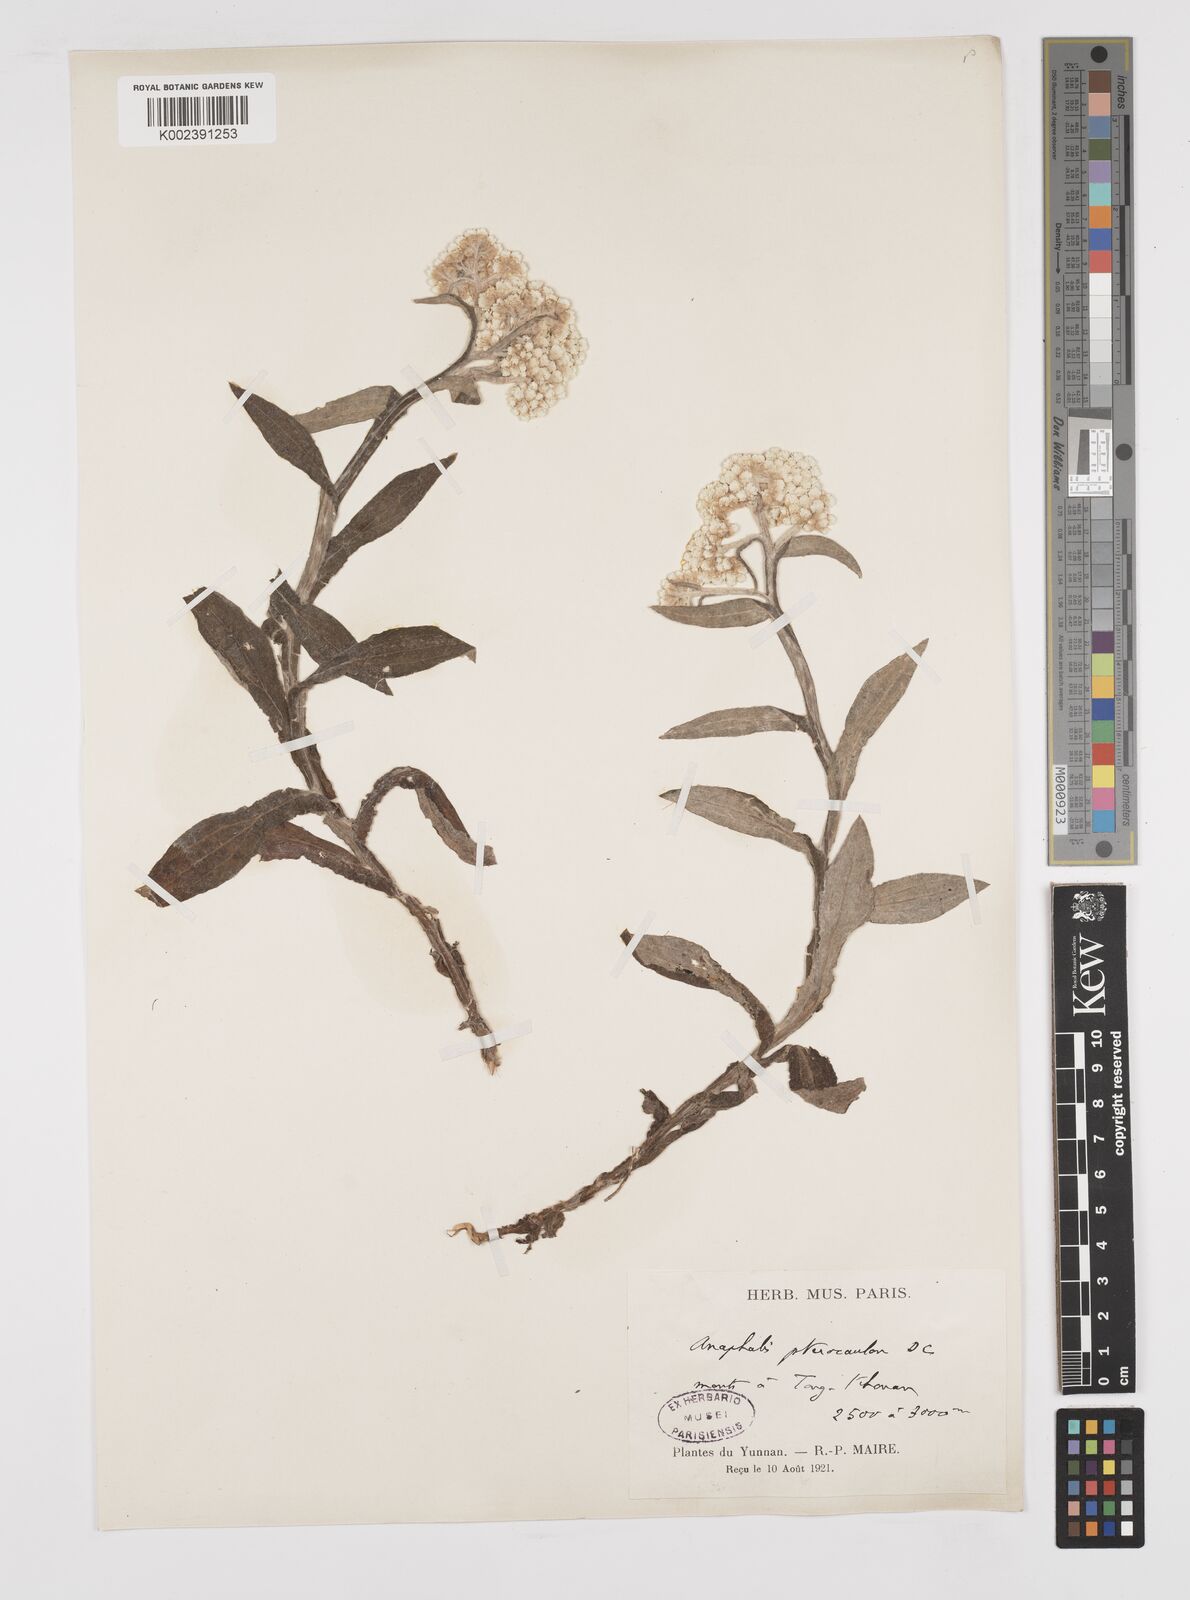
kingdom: Plantae
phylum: Tracheophyta
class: Magnoliopsida
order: Asterales
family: Asteraceae
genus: Anaphalis
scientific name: Anaphalis sinica
